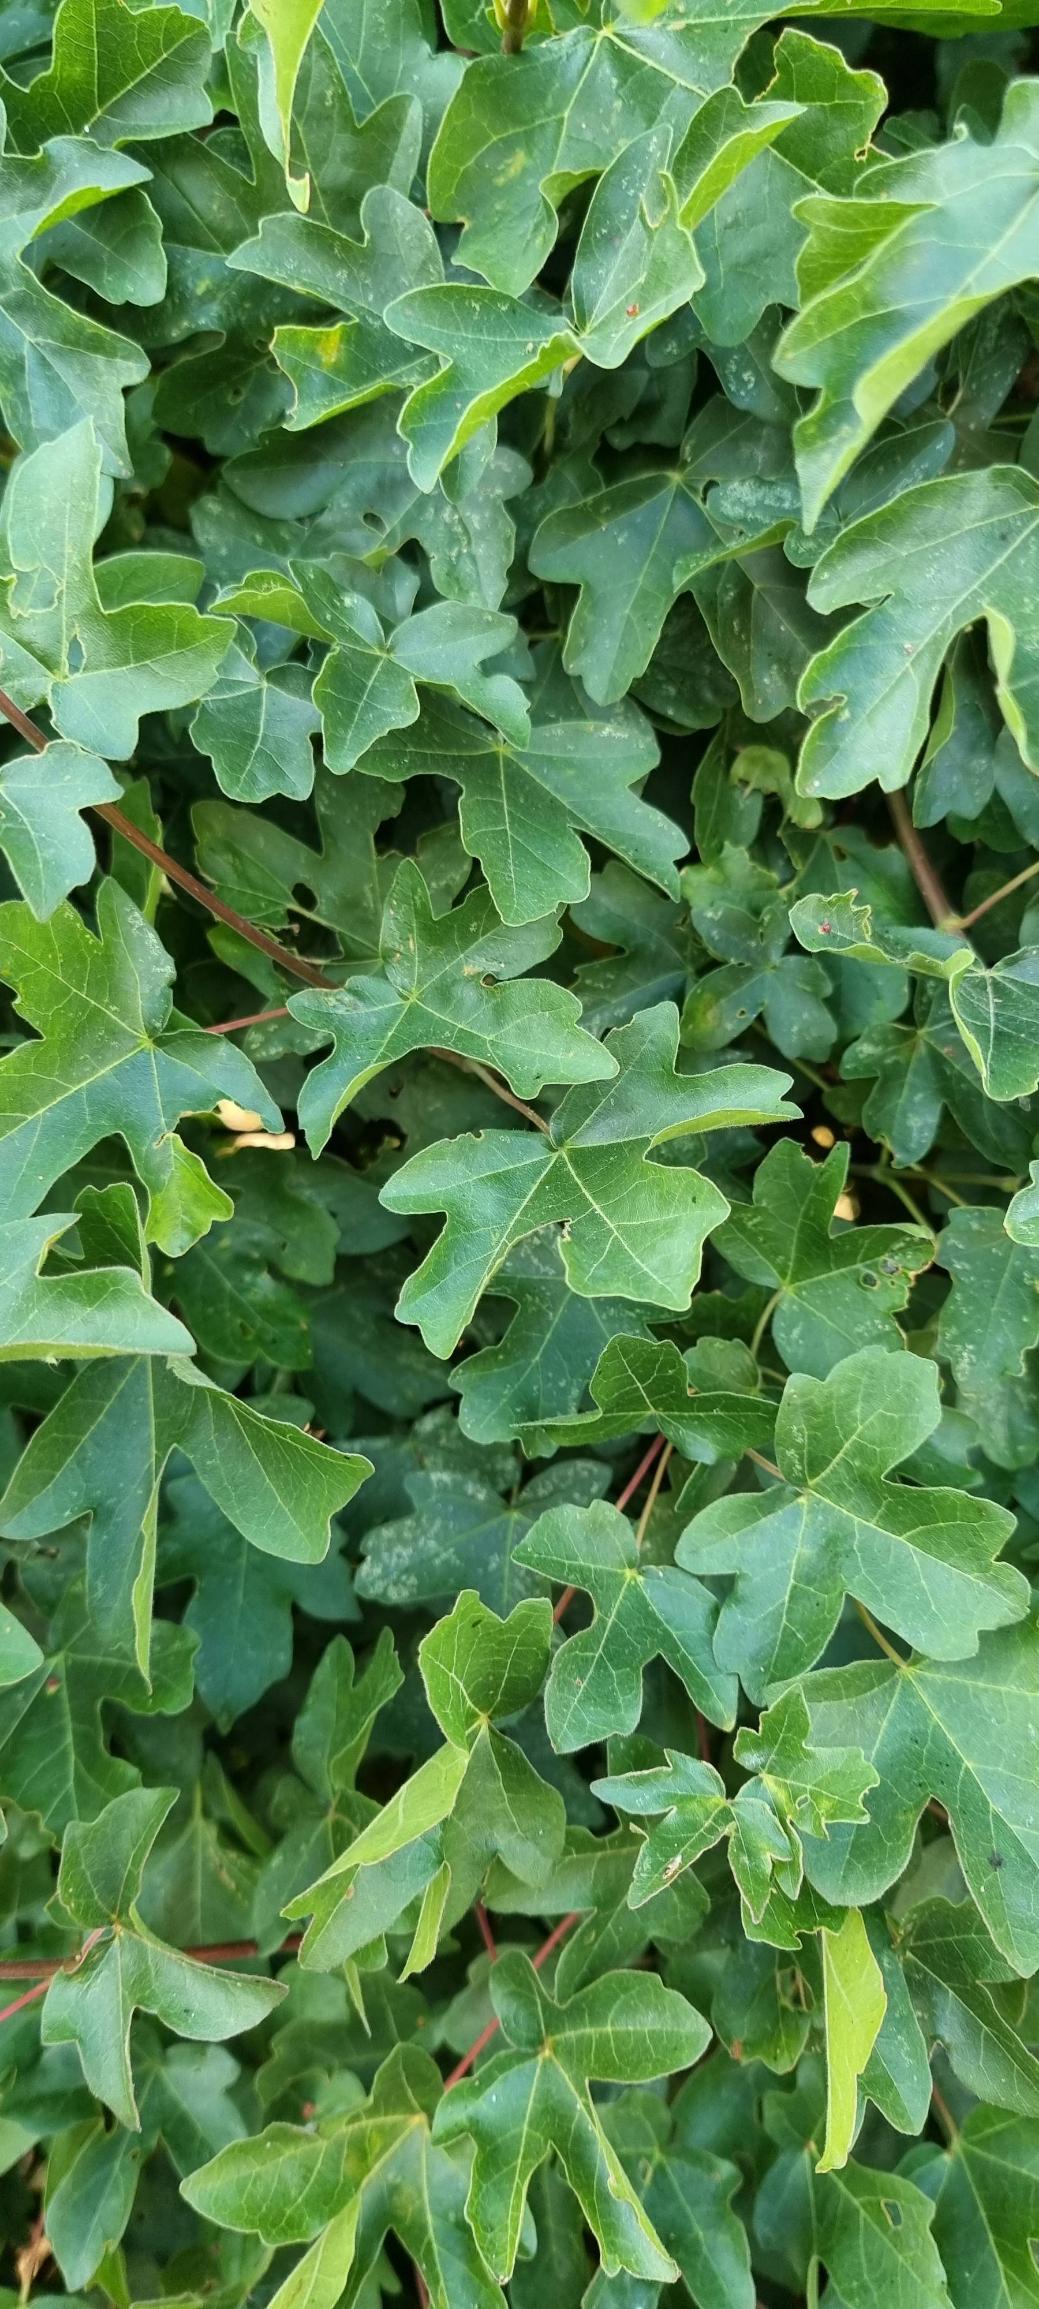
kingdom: Plantae
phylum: Tracheophyta
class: Magnoliopsida
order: Sapindales
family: Sapindaceae
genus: Acer
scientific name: Acer campestre
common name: Navr
